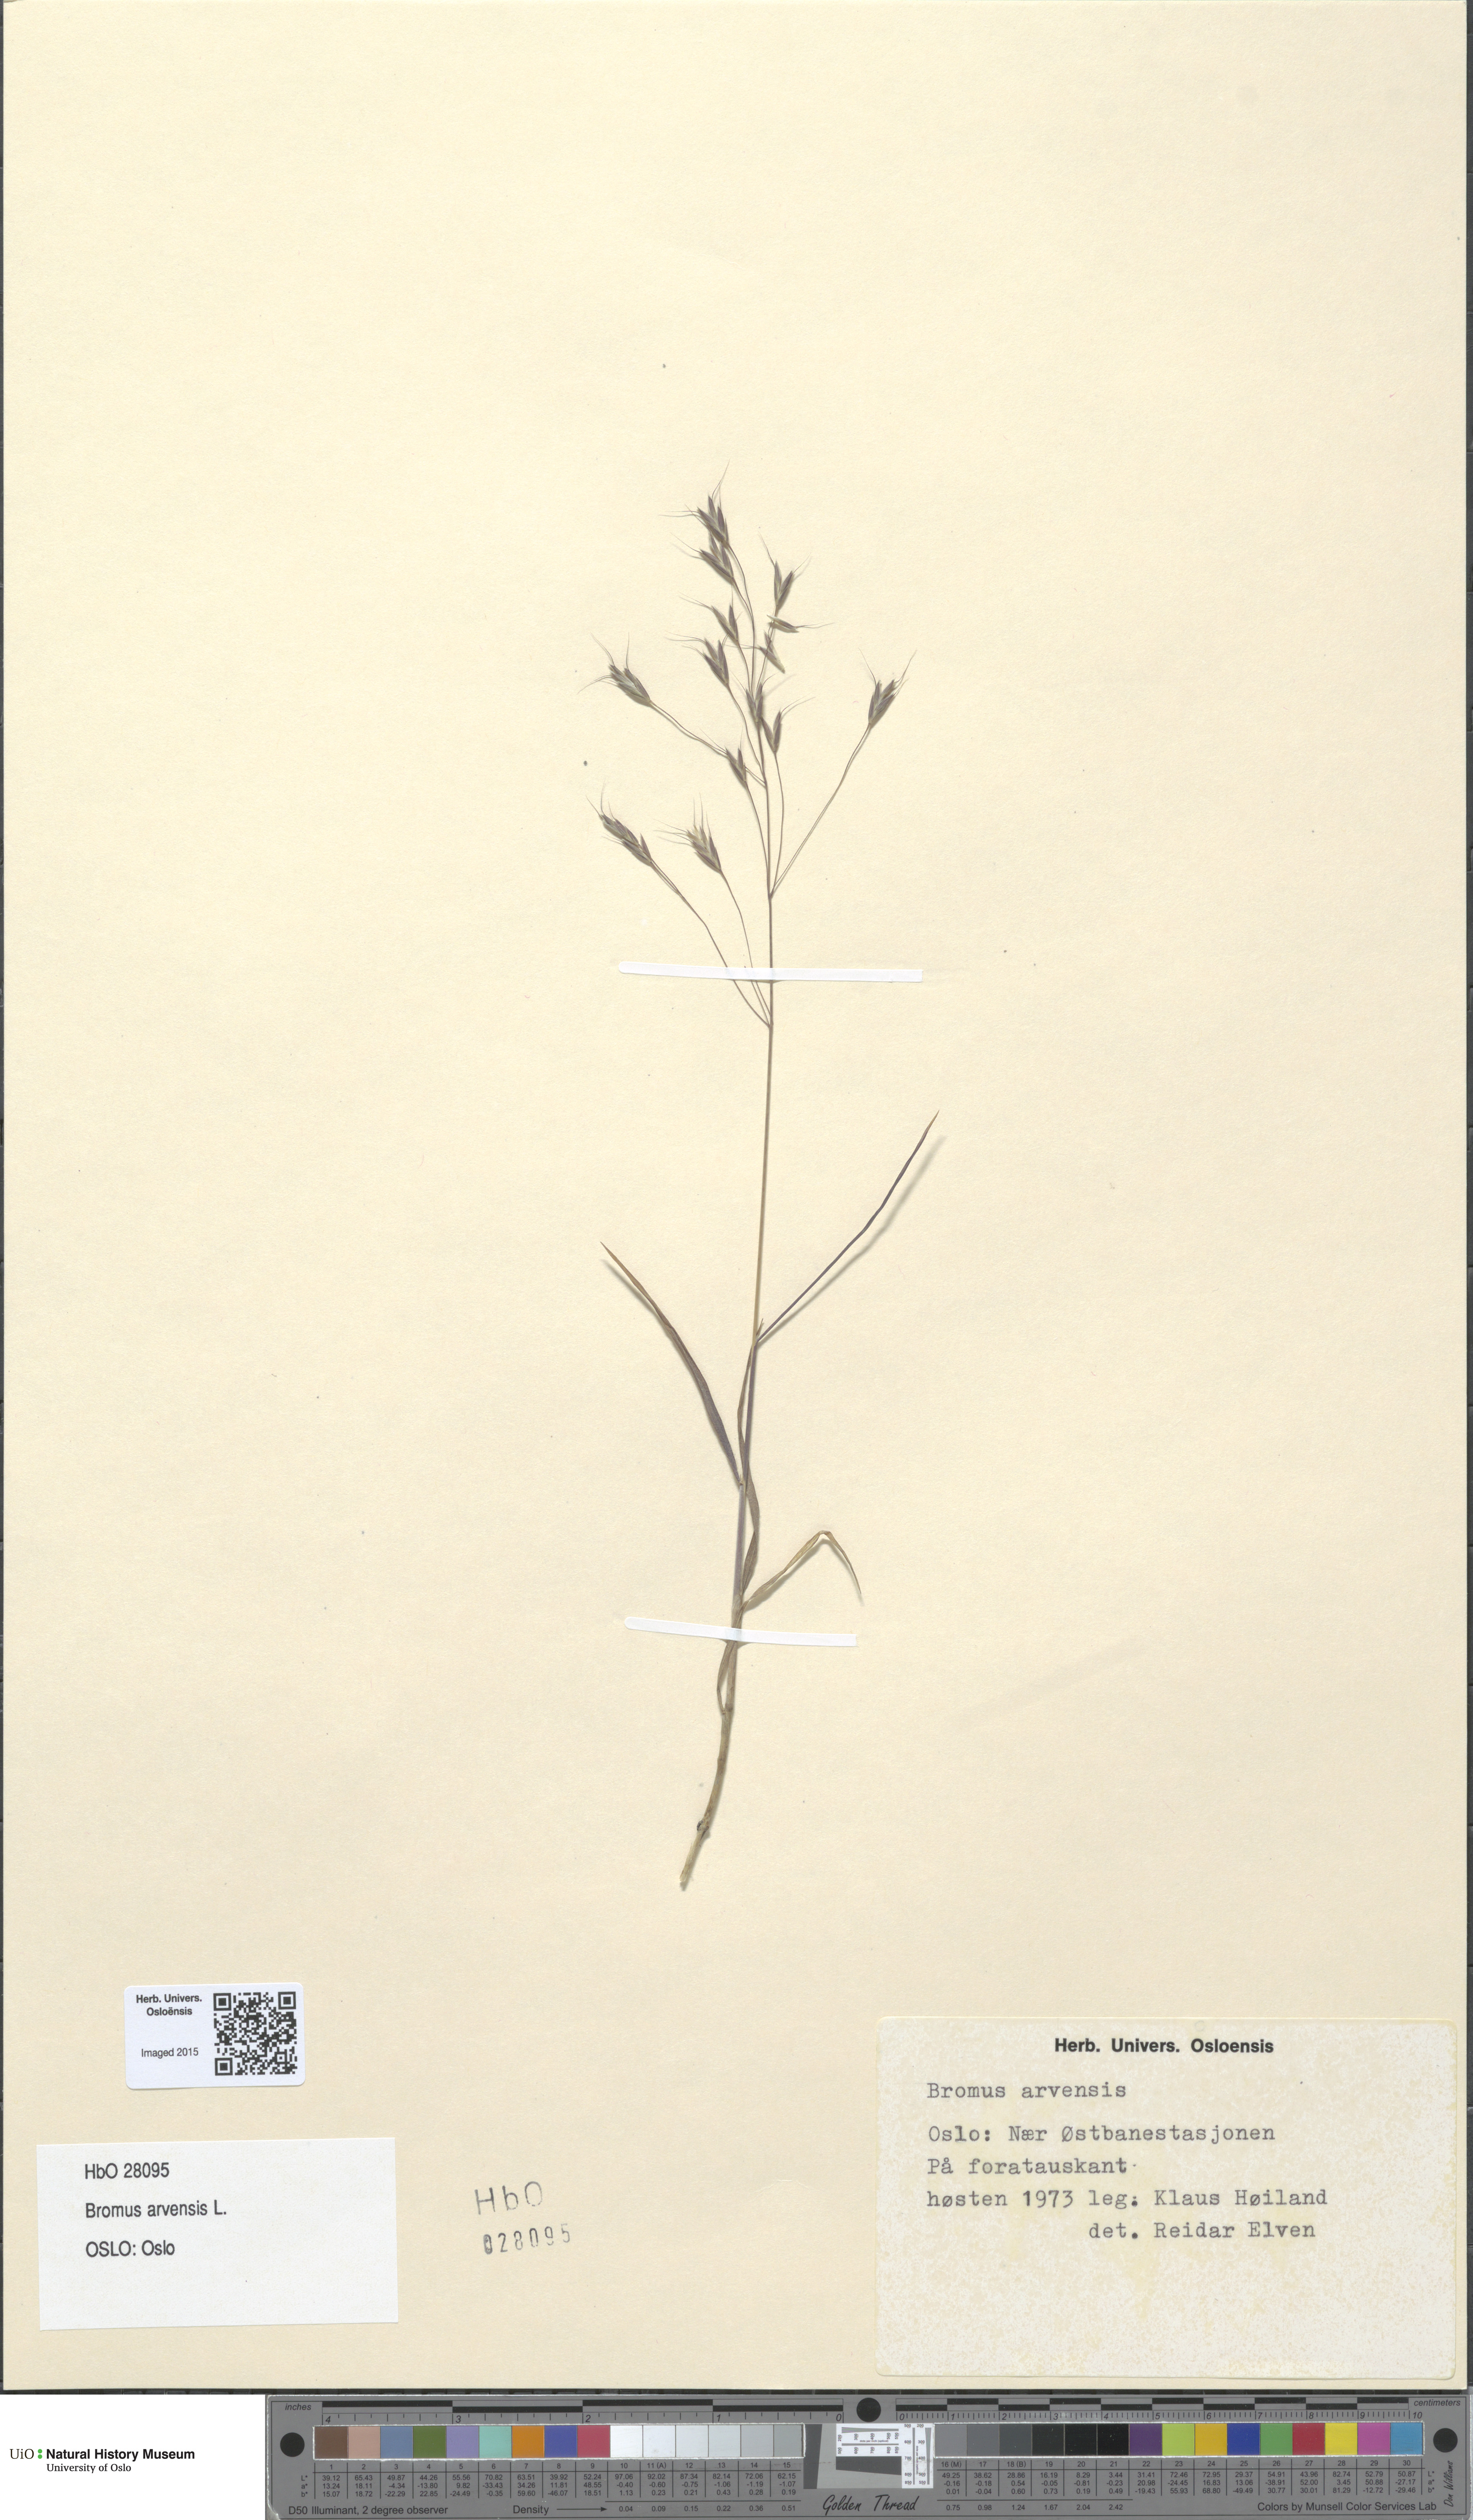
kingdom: Plantae
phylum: Tracheophyta
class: Liliopsida
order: Poales
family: Poaceae
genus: Bromus
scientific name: Bromus arvensis
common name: Field brome
